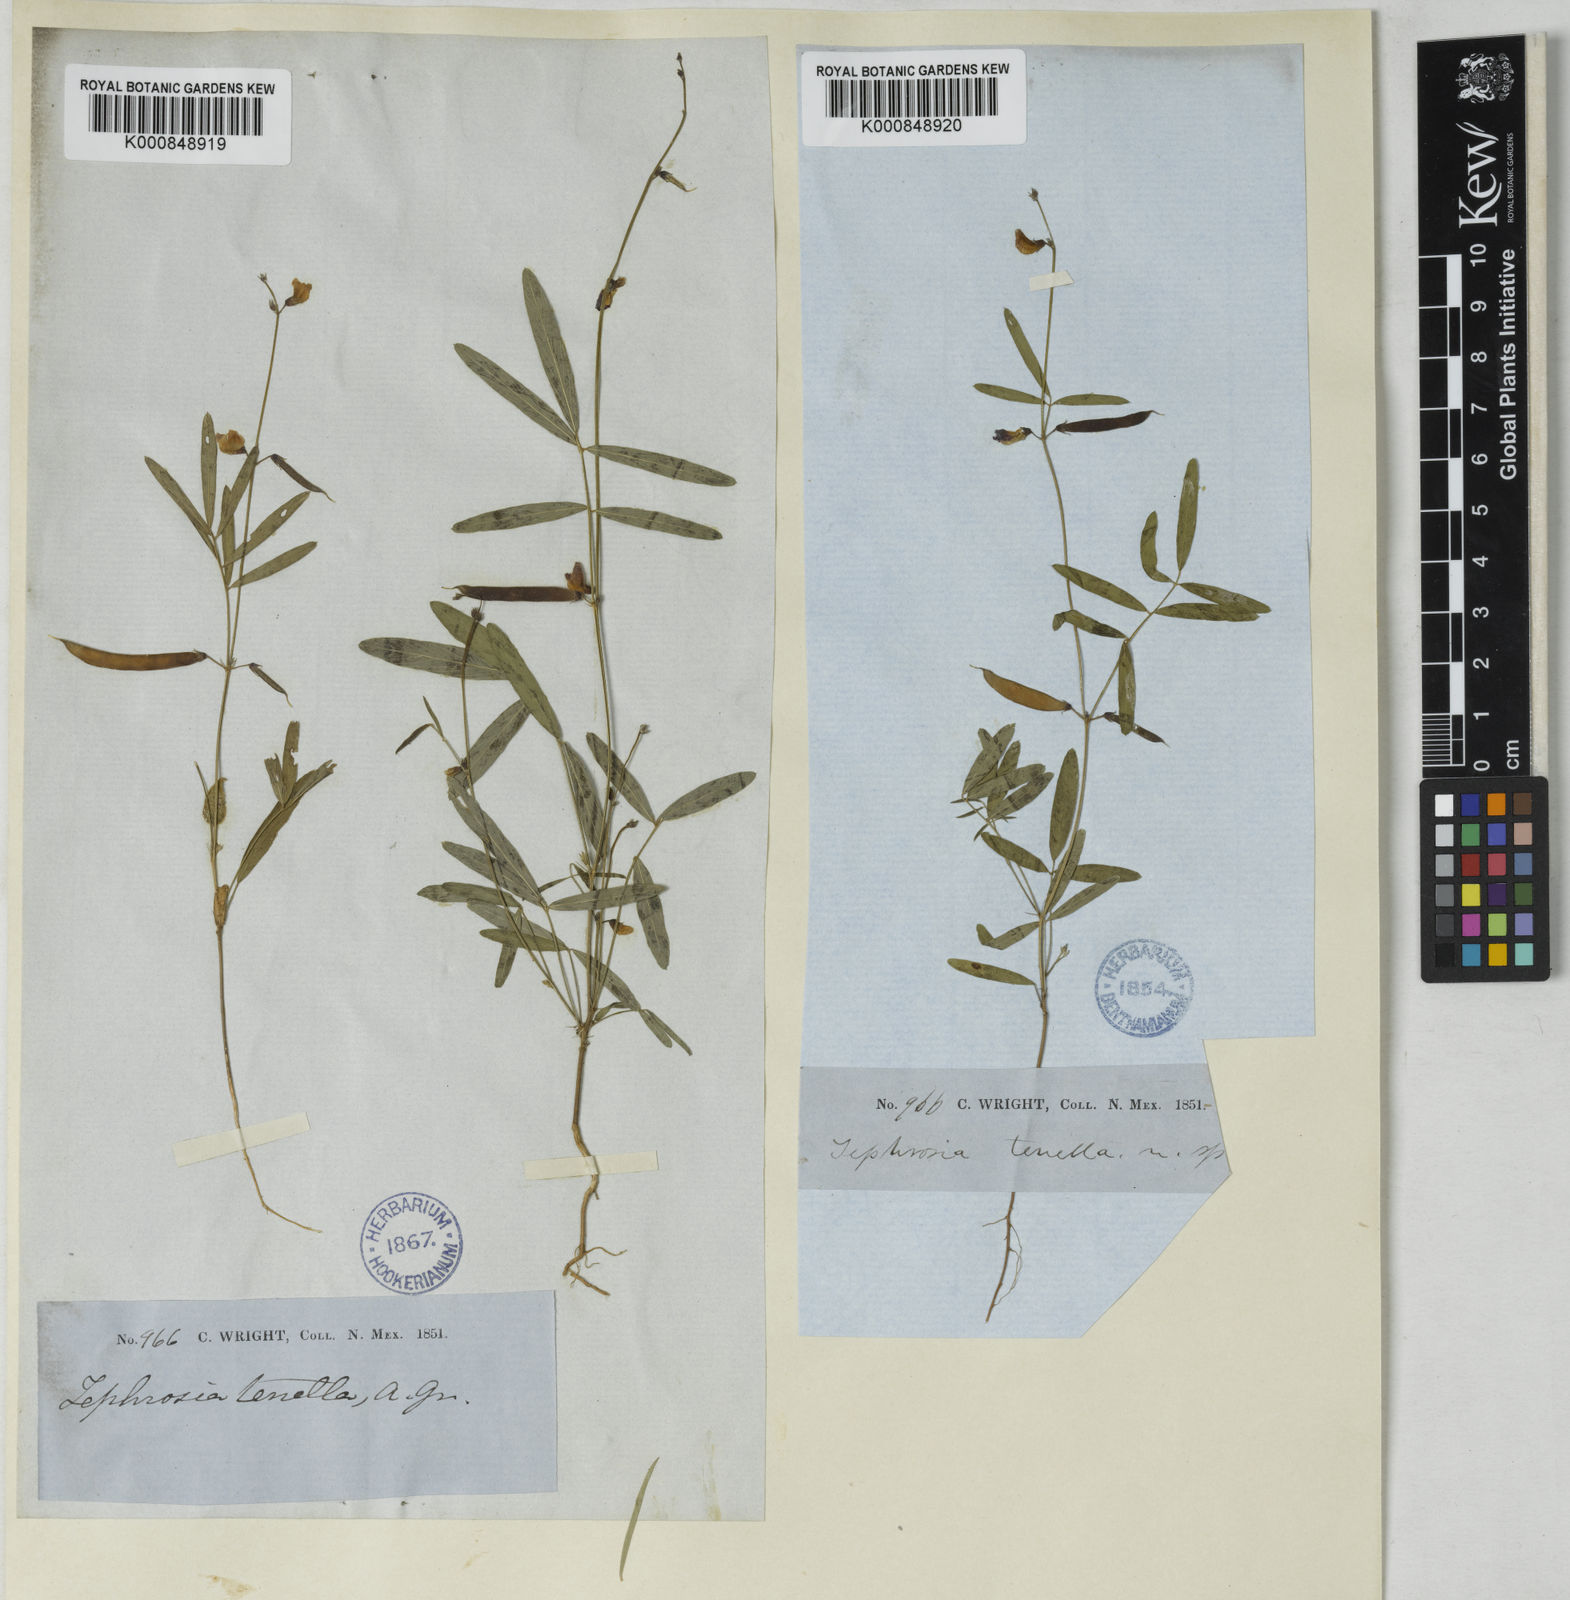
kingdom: Plantae
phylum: Tracheophyta
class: Magnoliopsida
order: Fabales
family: Fabaceae
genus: Tephrosia
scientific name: Tephrosia domingensis
